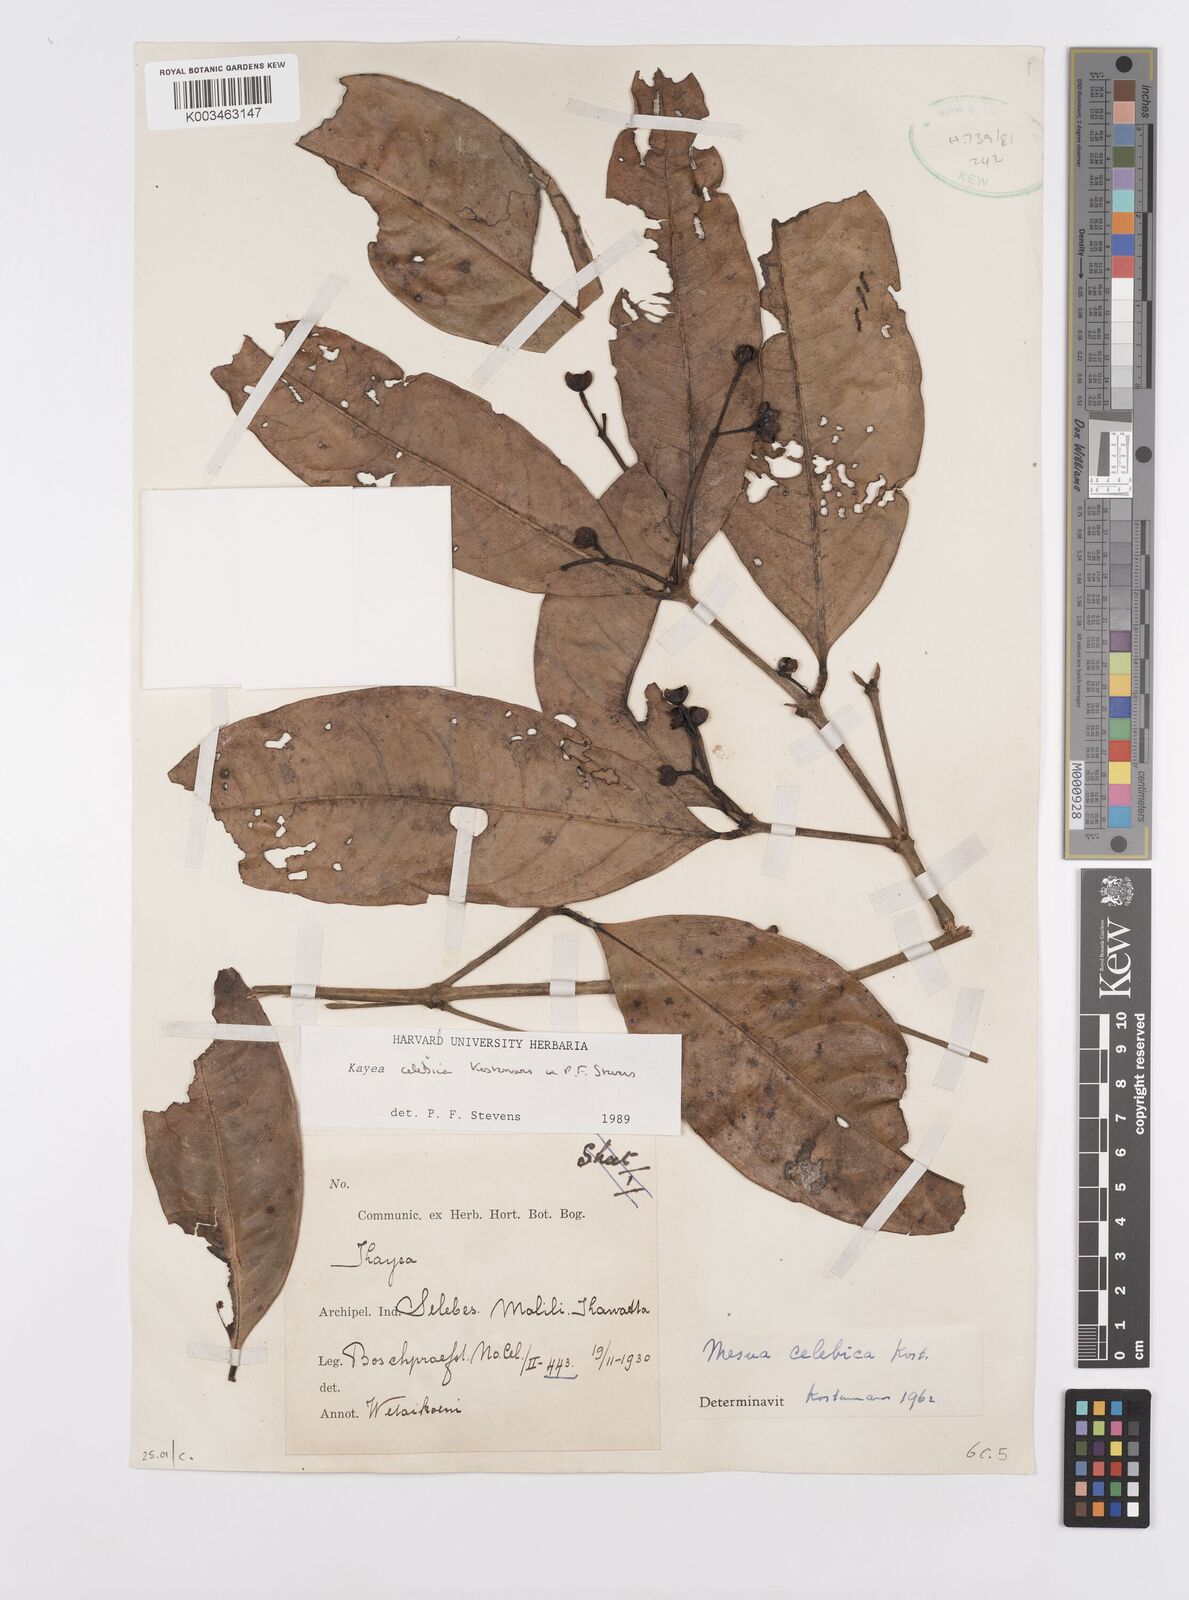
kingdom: Plantae
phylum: Tracheophyta
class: Magnoliopsida
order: Malpighiales
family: Calophyllaceae
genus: Kayea
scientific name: Kayea
